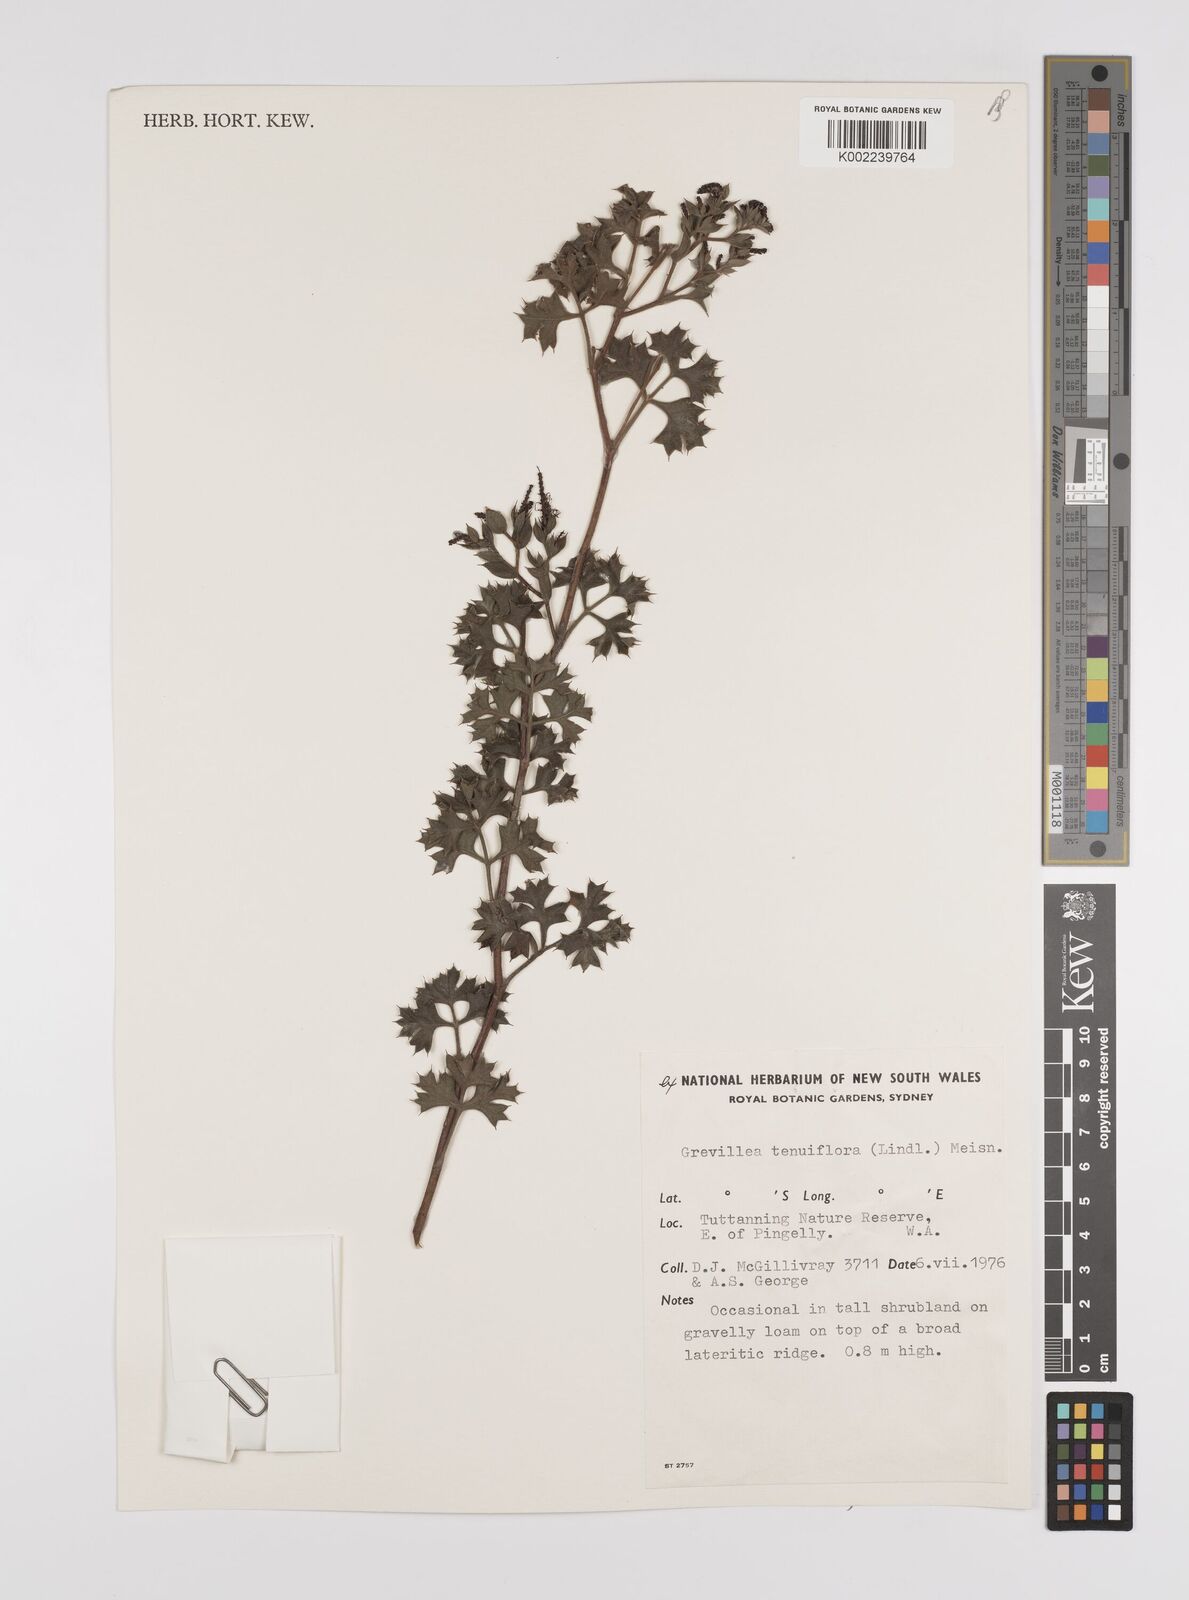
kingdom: Plantae
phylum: Tracheophyta
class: Magnoliopsida
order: Proteales
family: Proteaceae
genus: Grevillea
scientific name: Grevillea tenuiflora
